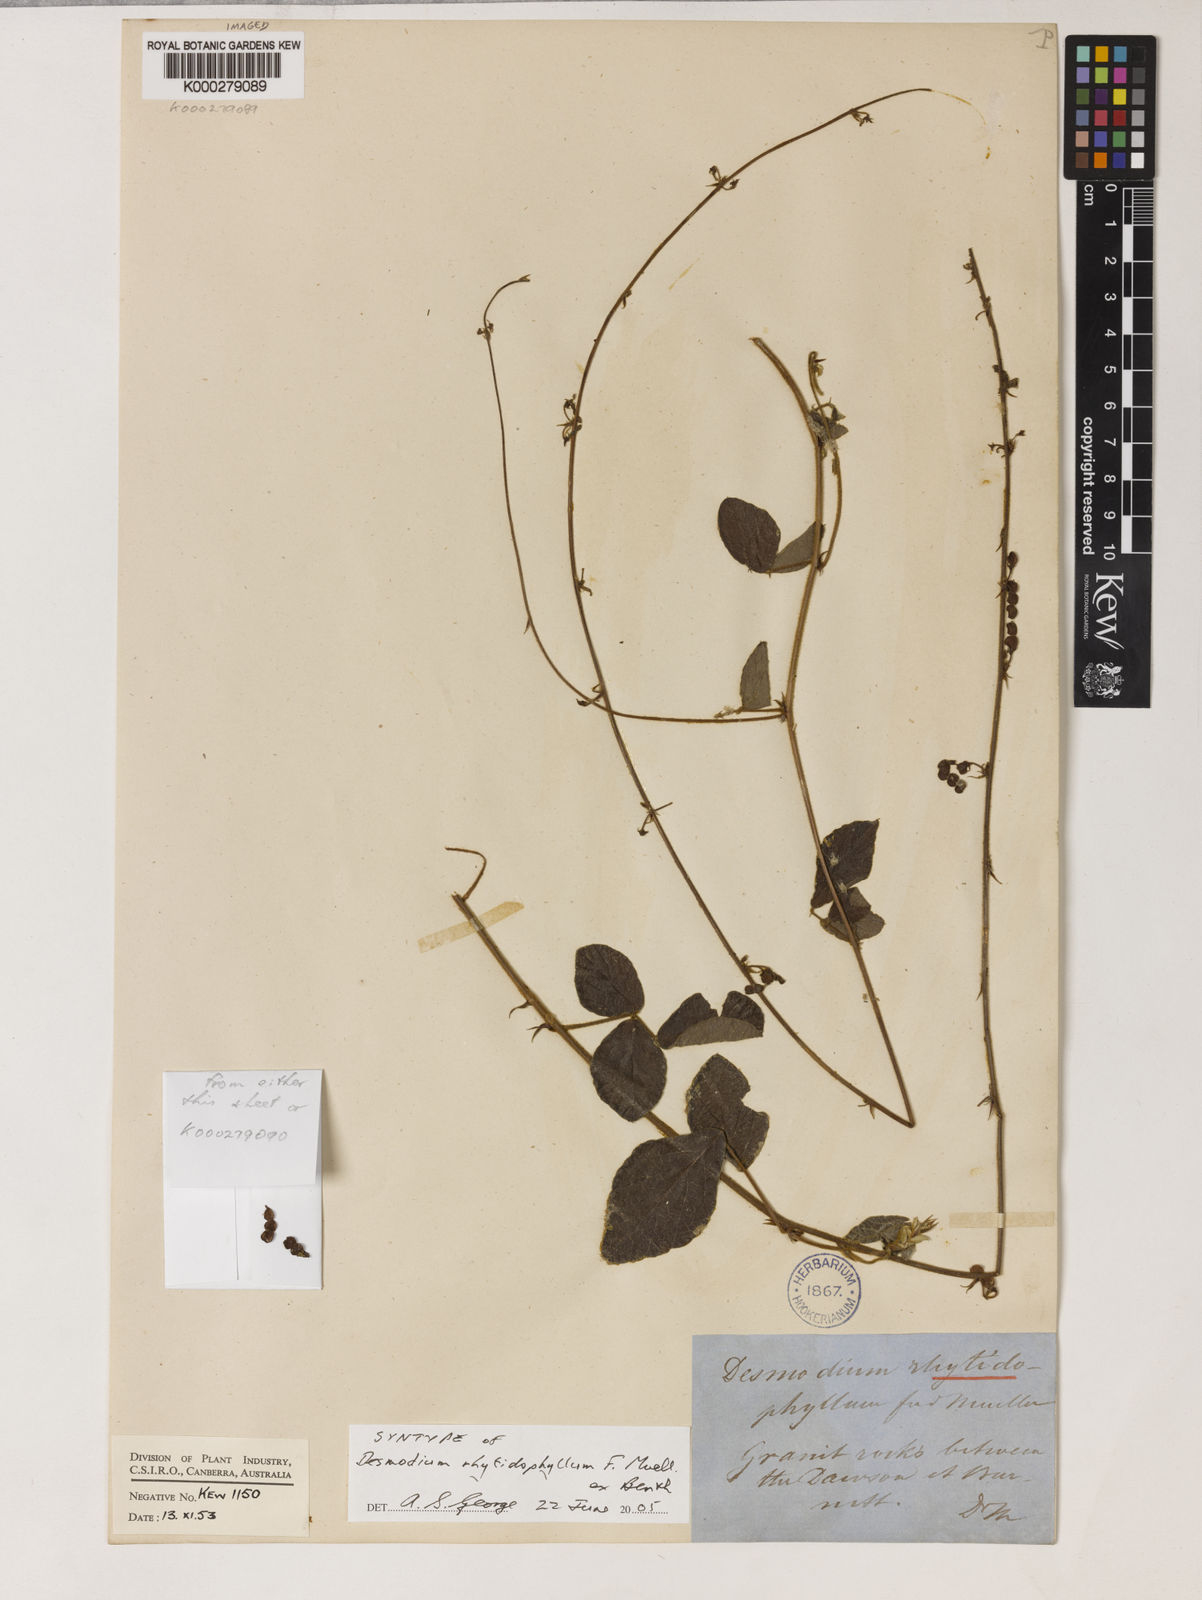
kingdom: Plantae
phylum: Tracheophyta
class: Magnoliopsida
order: Fabales
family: Fabaceae
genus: Maekawaea
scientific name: Maekawaea rhytidophylla
